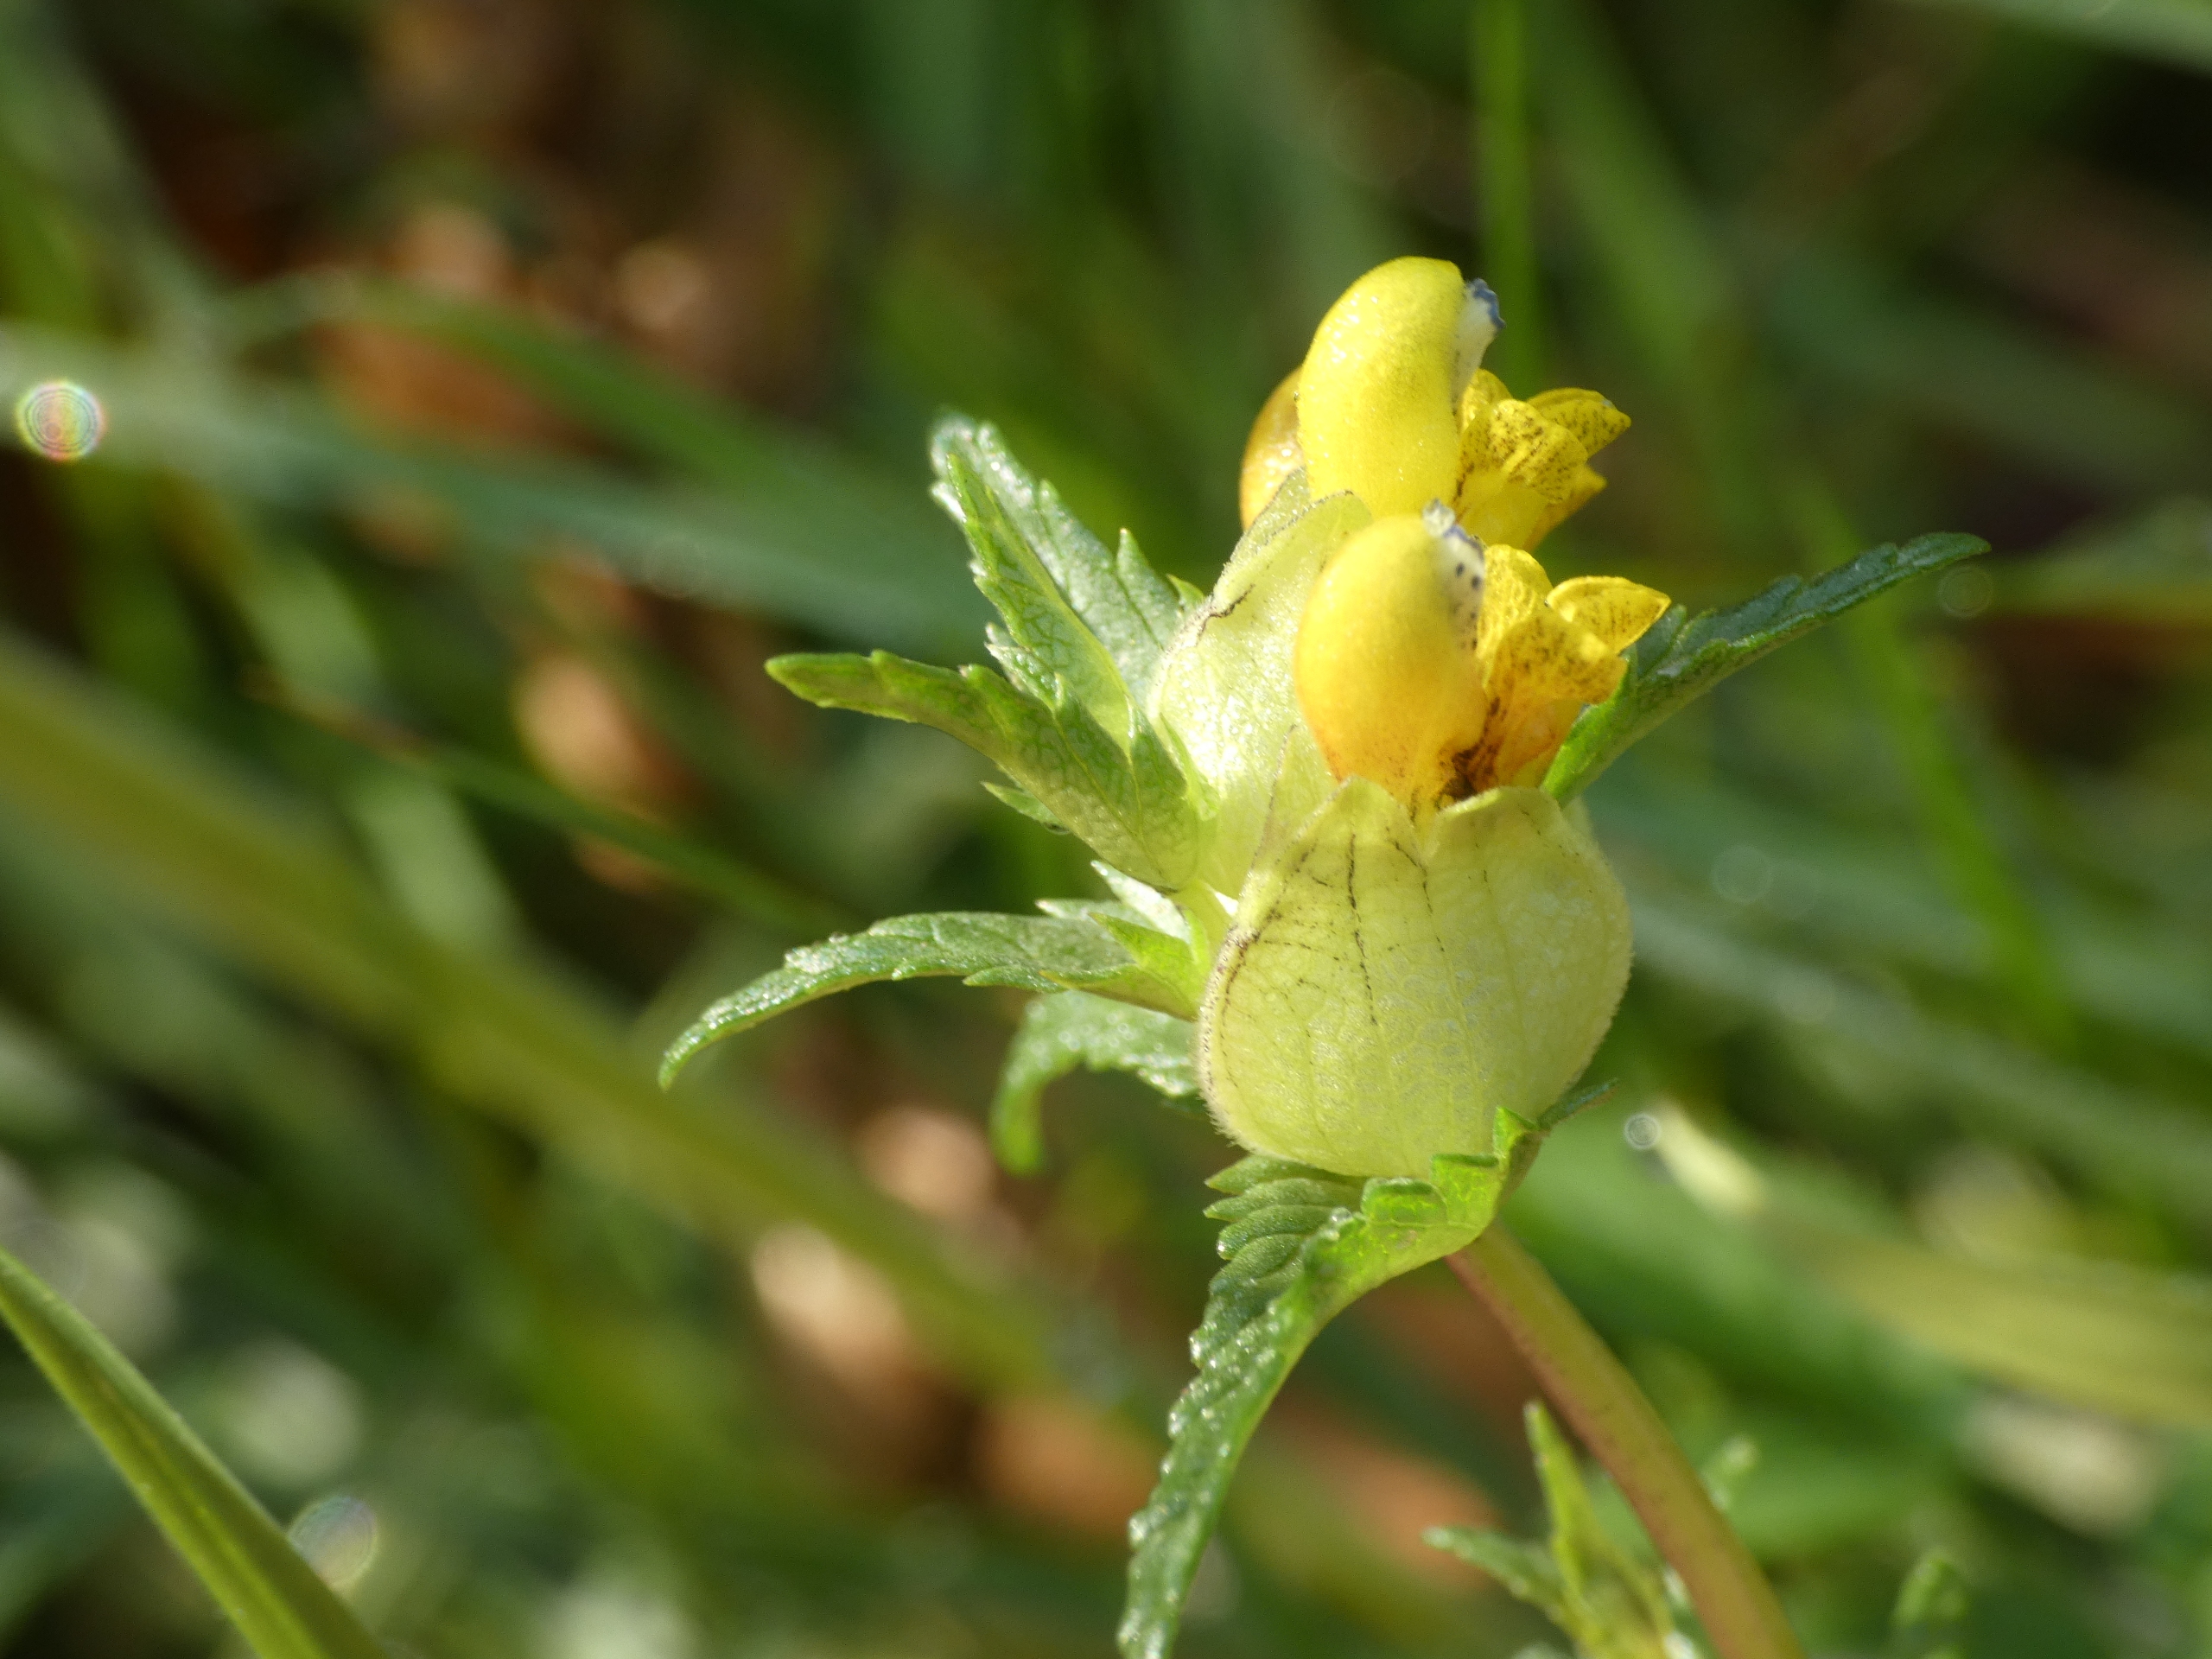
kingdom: Plantae
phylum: Tracheophyta
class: Magnoliopsida
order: Lamiales
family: Orobanchaceae
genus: Rhinanthus
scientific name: Rhinanthus minor
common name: Liden skjaller
